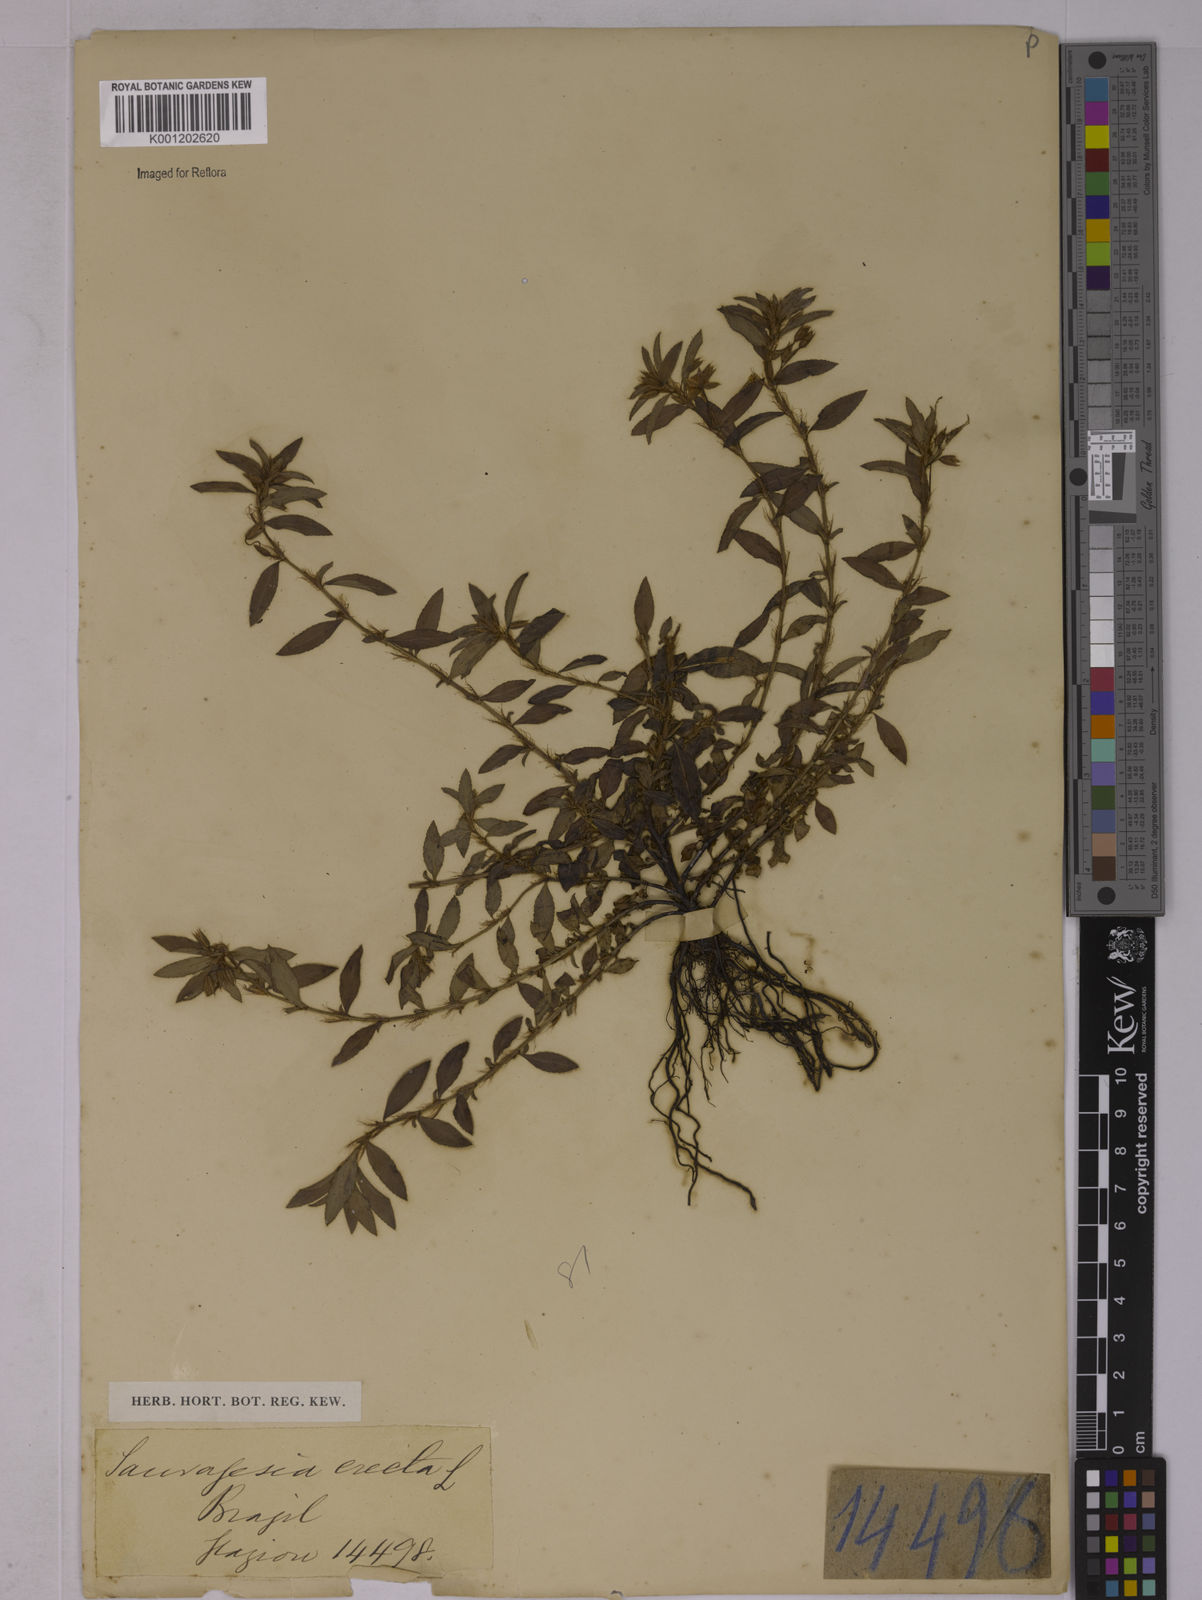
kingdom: Plantae
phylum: Tracheophyta
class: Magnoliopsida
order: Malpighiales
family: Ochnaceae
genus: Sauvagesia
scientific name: Sauvagesia erecta
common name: Creole tea
